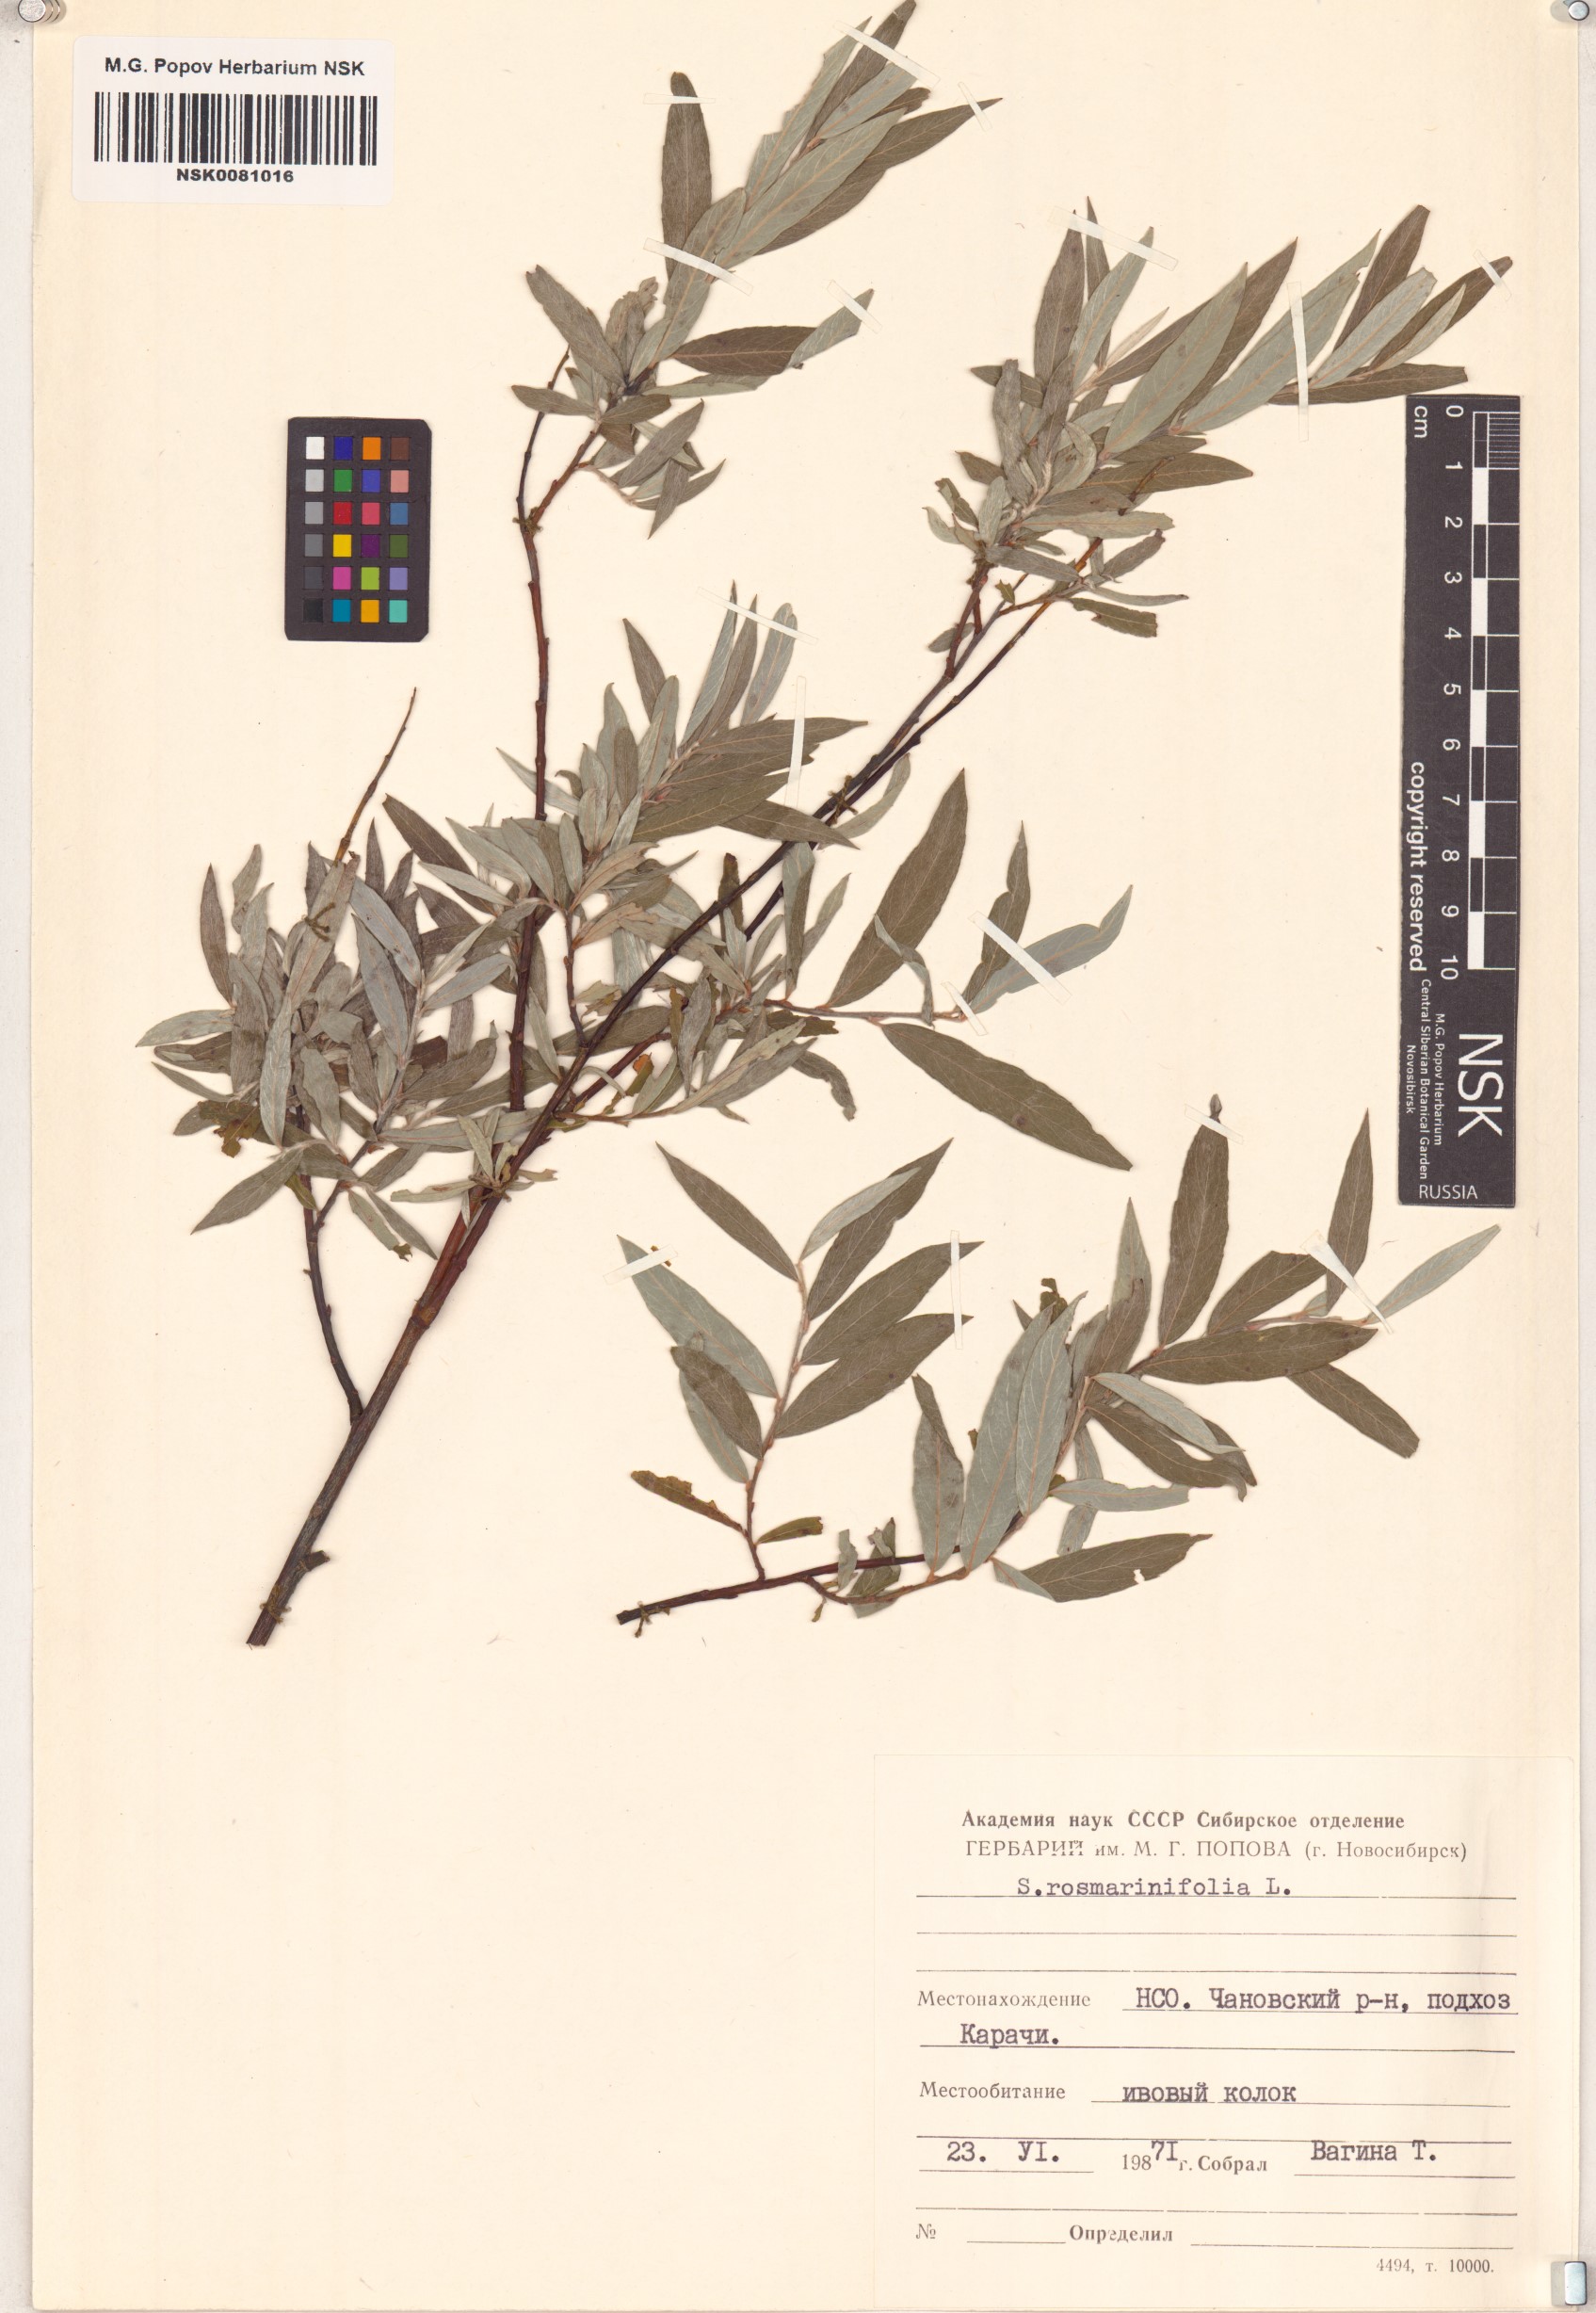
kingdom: Plantae
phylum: Tracheophyta
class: Magnoliopsida
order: Malpighiales
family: Salicaceae
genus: Salix
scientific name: Salix rosmarinifolia
